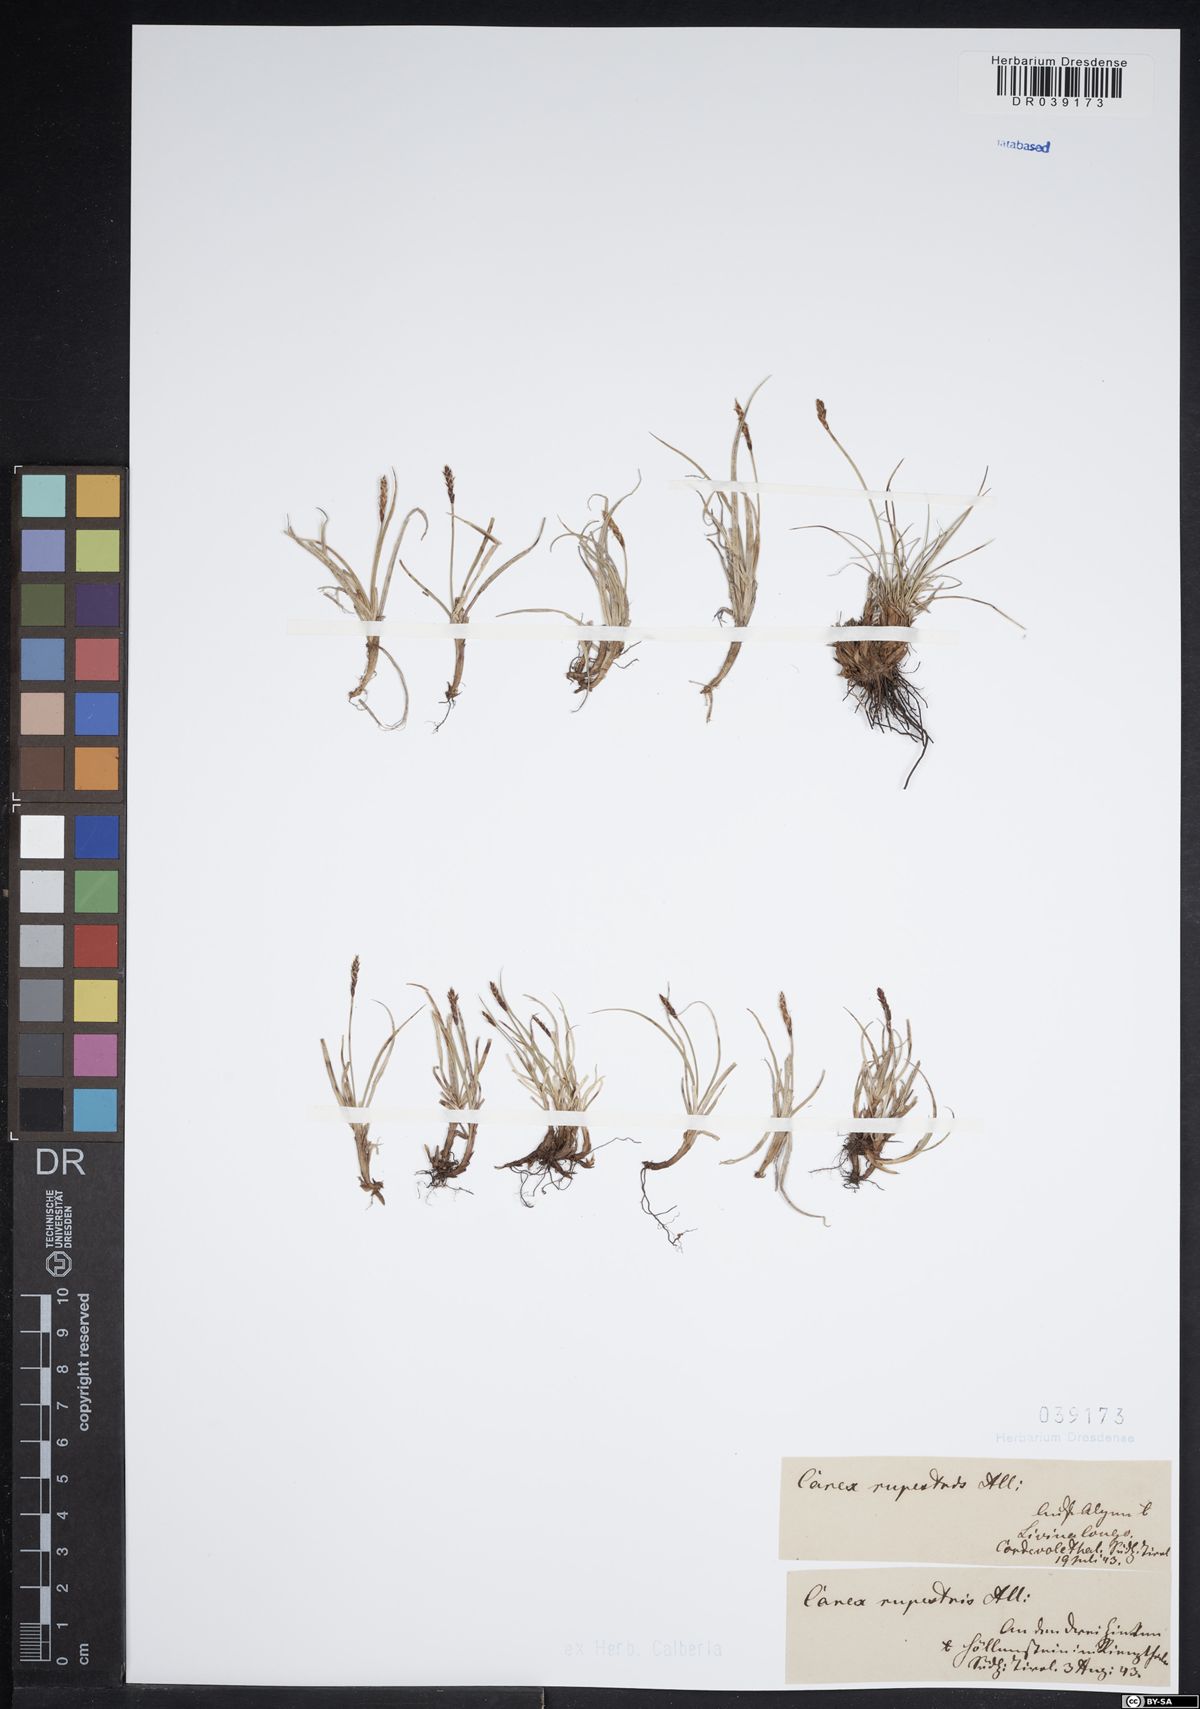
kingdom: Plantae
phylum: Tracheophyta
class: Liliopsida
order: Poales
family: Cyperaceae
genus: Carex
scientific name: Carex rupestris
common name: Rock sedge
